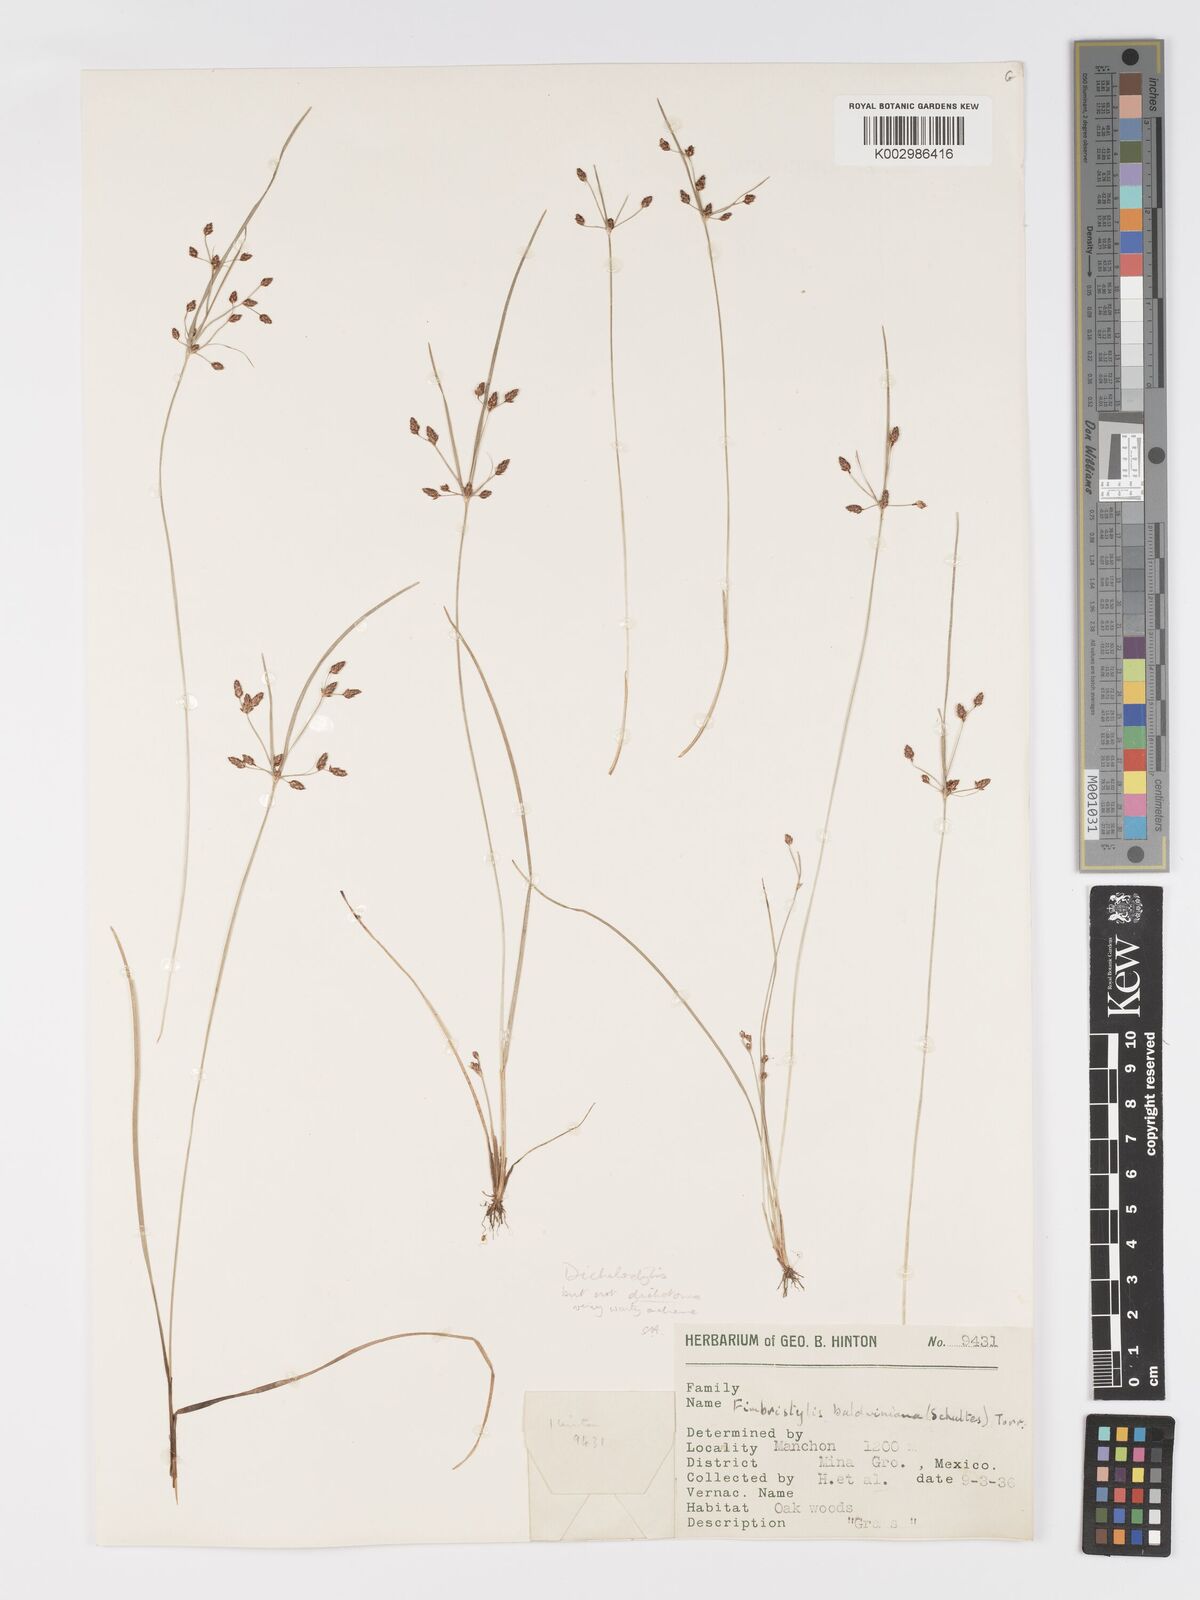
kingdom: Plantae
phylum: Tracheophyta
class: Liliopsida
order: Poales
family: Cyperaceae
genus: Fimbristylis
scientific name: Fimbristylis
